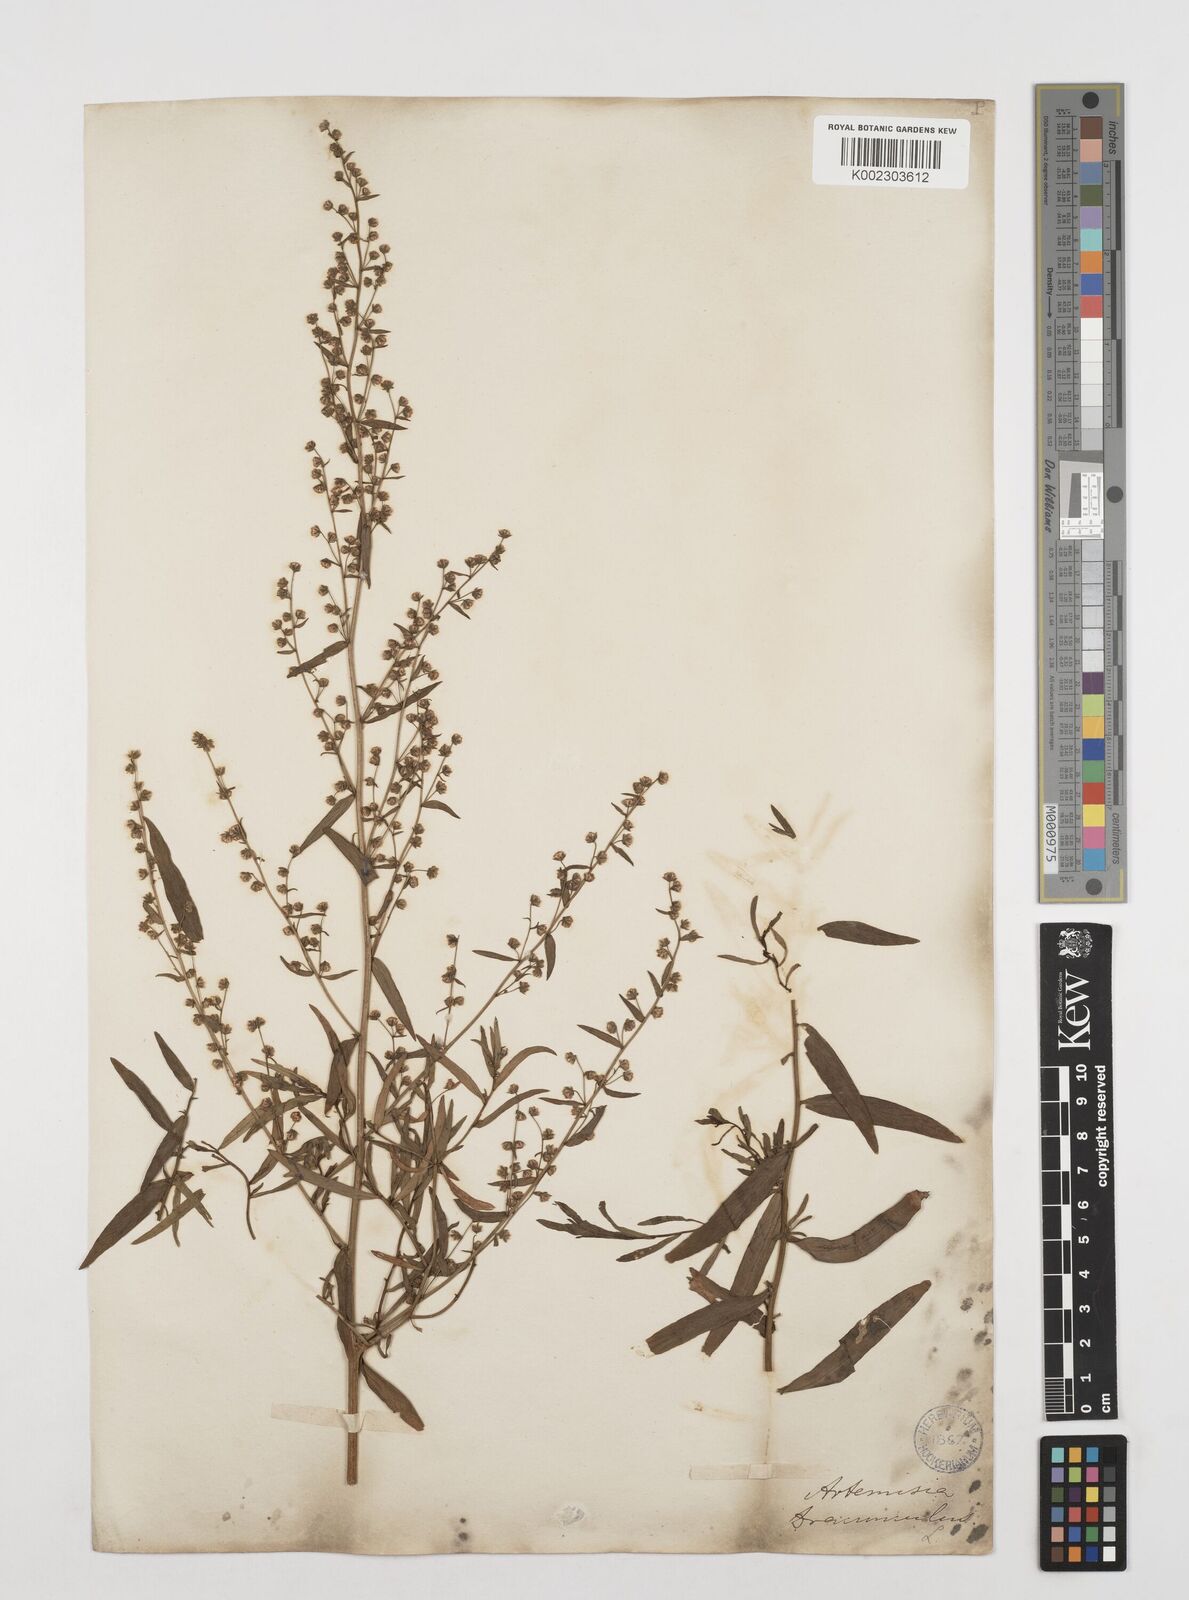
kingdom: Plantae
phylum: Tracheophyta
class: Magnoliopsida
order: Asterales
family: Asteraceae
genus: Artemisia
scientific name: Artemisia dracunculus
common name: Tarragon
